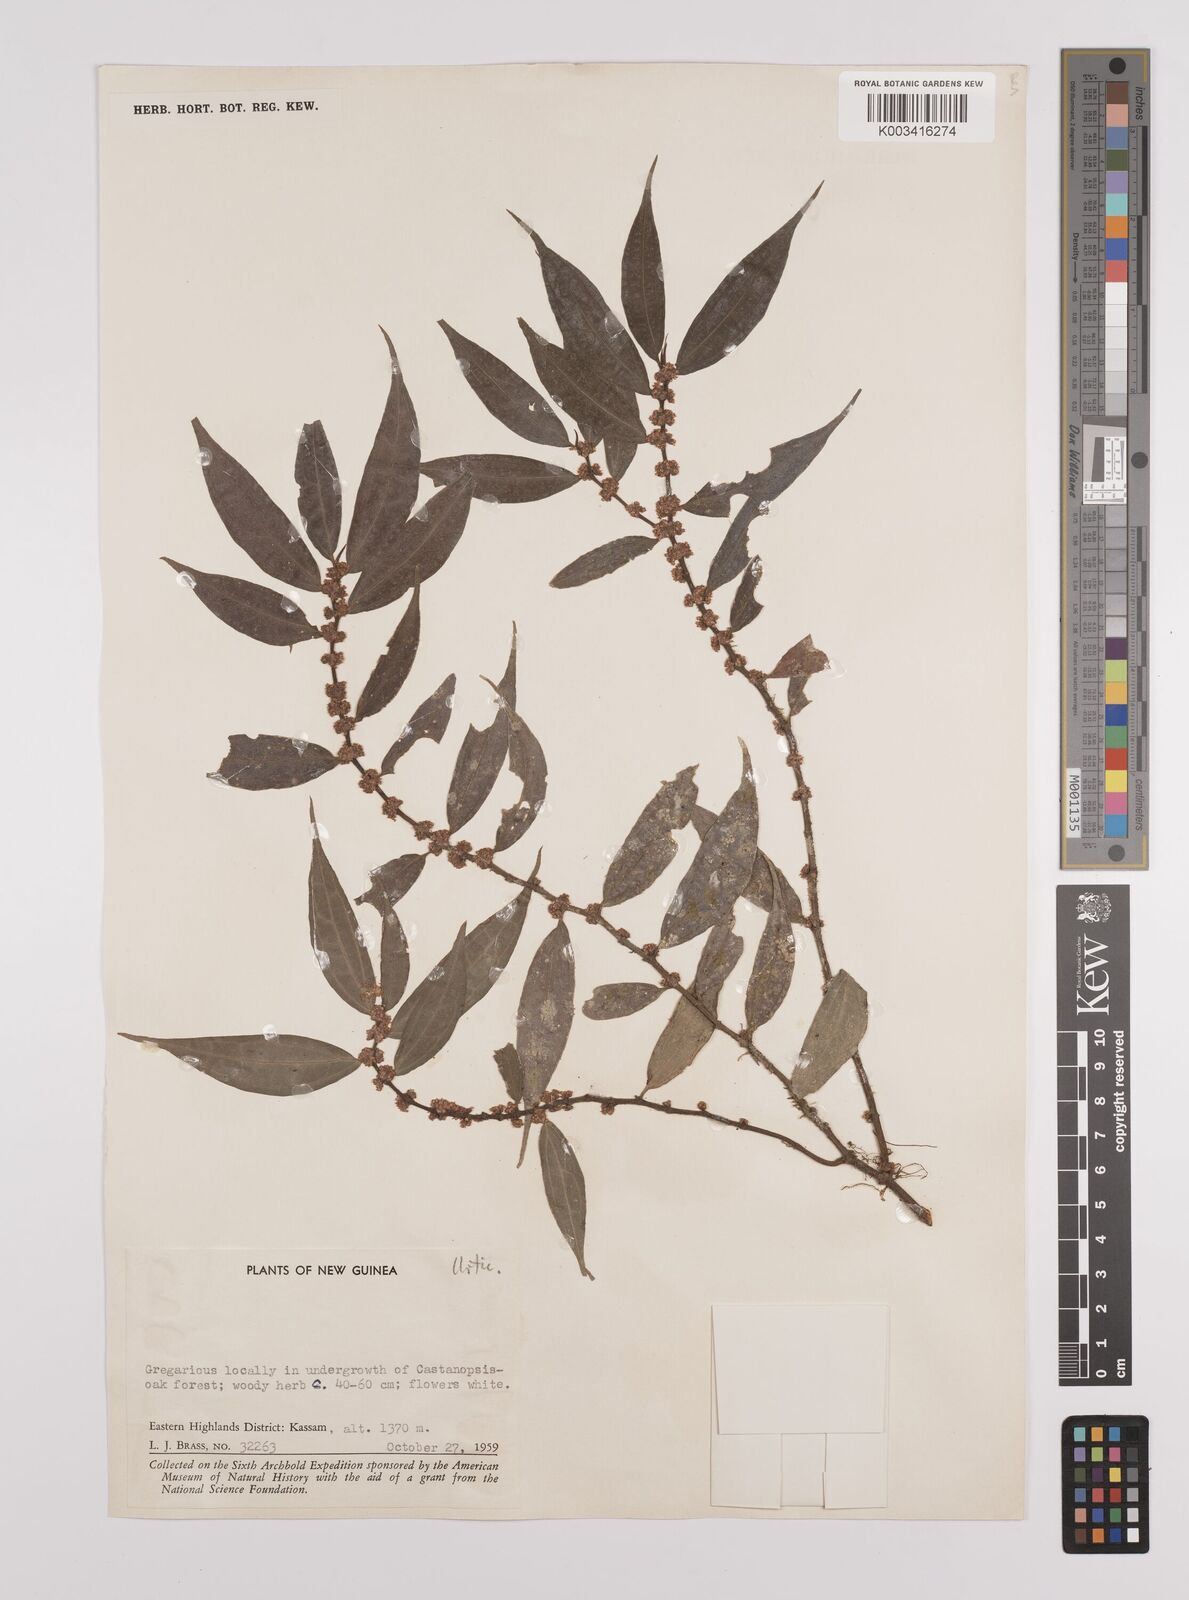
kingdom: Plantae
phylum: Tracheophyta
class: Magnoliopsida
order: Rosales
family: Urticaceae
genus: Elatostema
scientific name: Elatostema integrifolium
